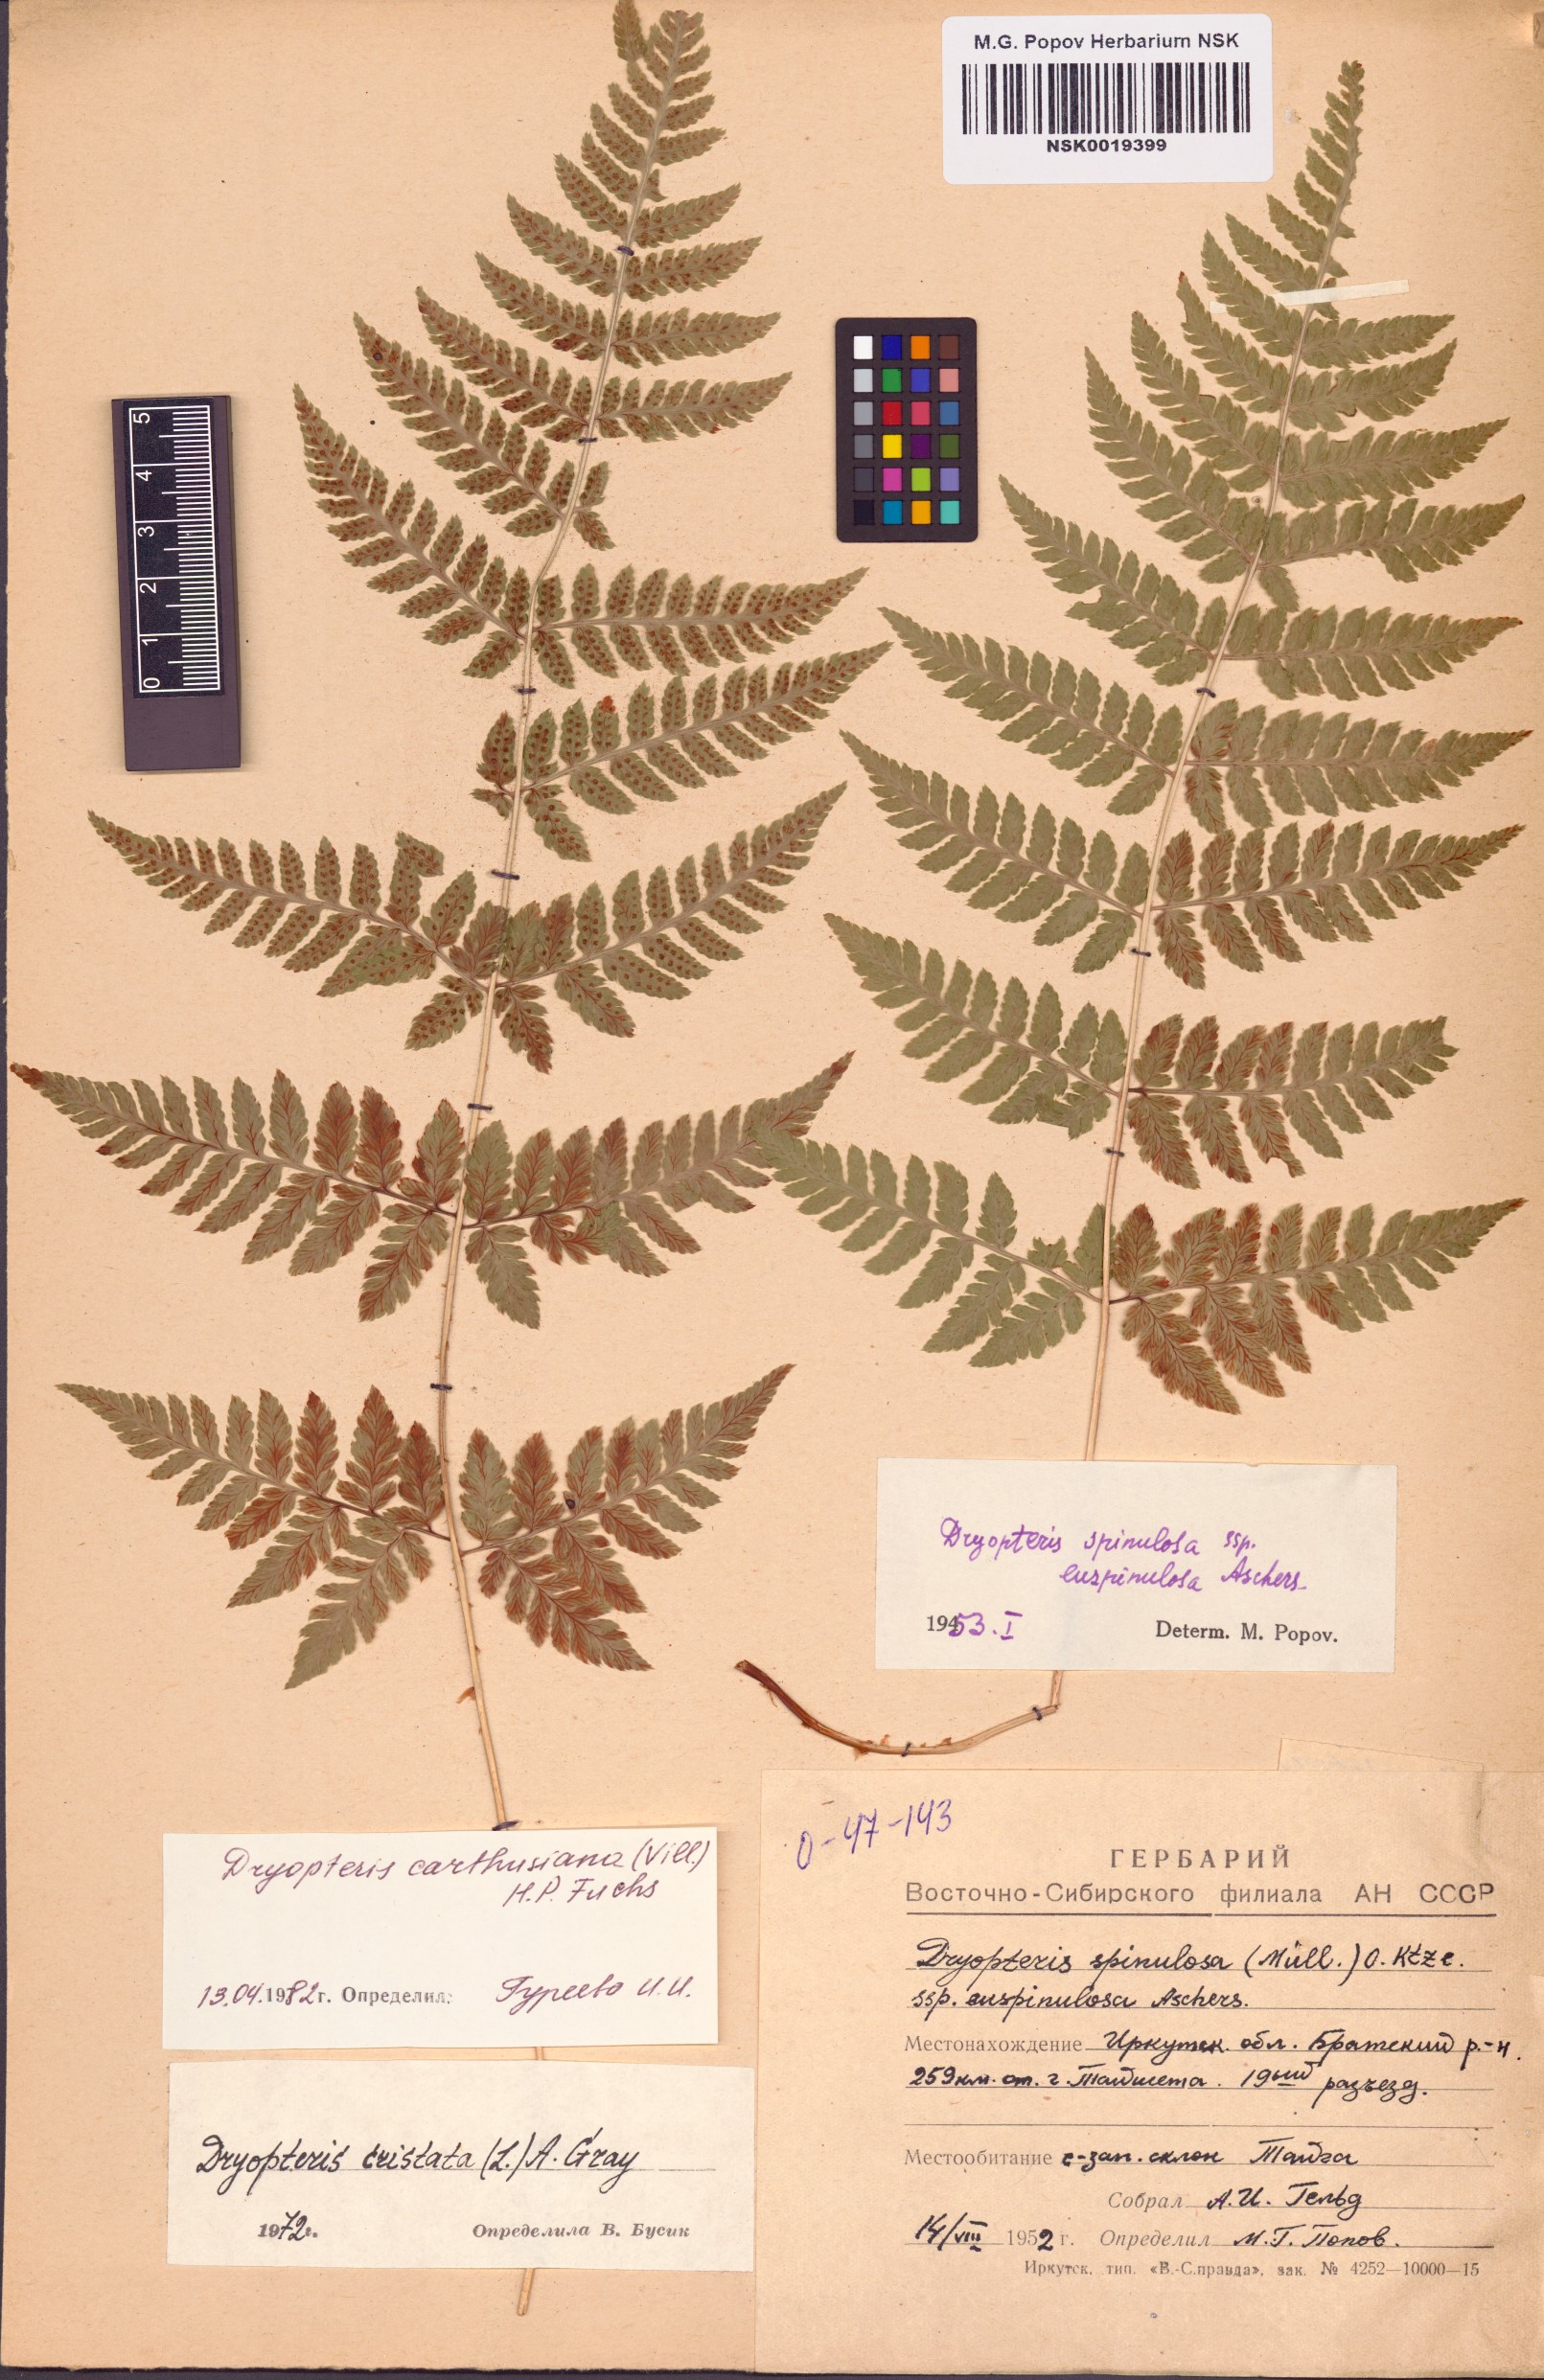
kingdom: Plantae
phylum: Tracheophyta
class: Polypodiopsida
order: Polypodiales
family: Dryopteridaceae
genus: Dryopteris
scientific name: Dryopteris carthusiana
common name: Narrow buckler-fern
